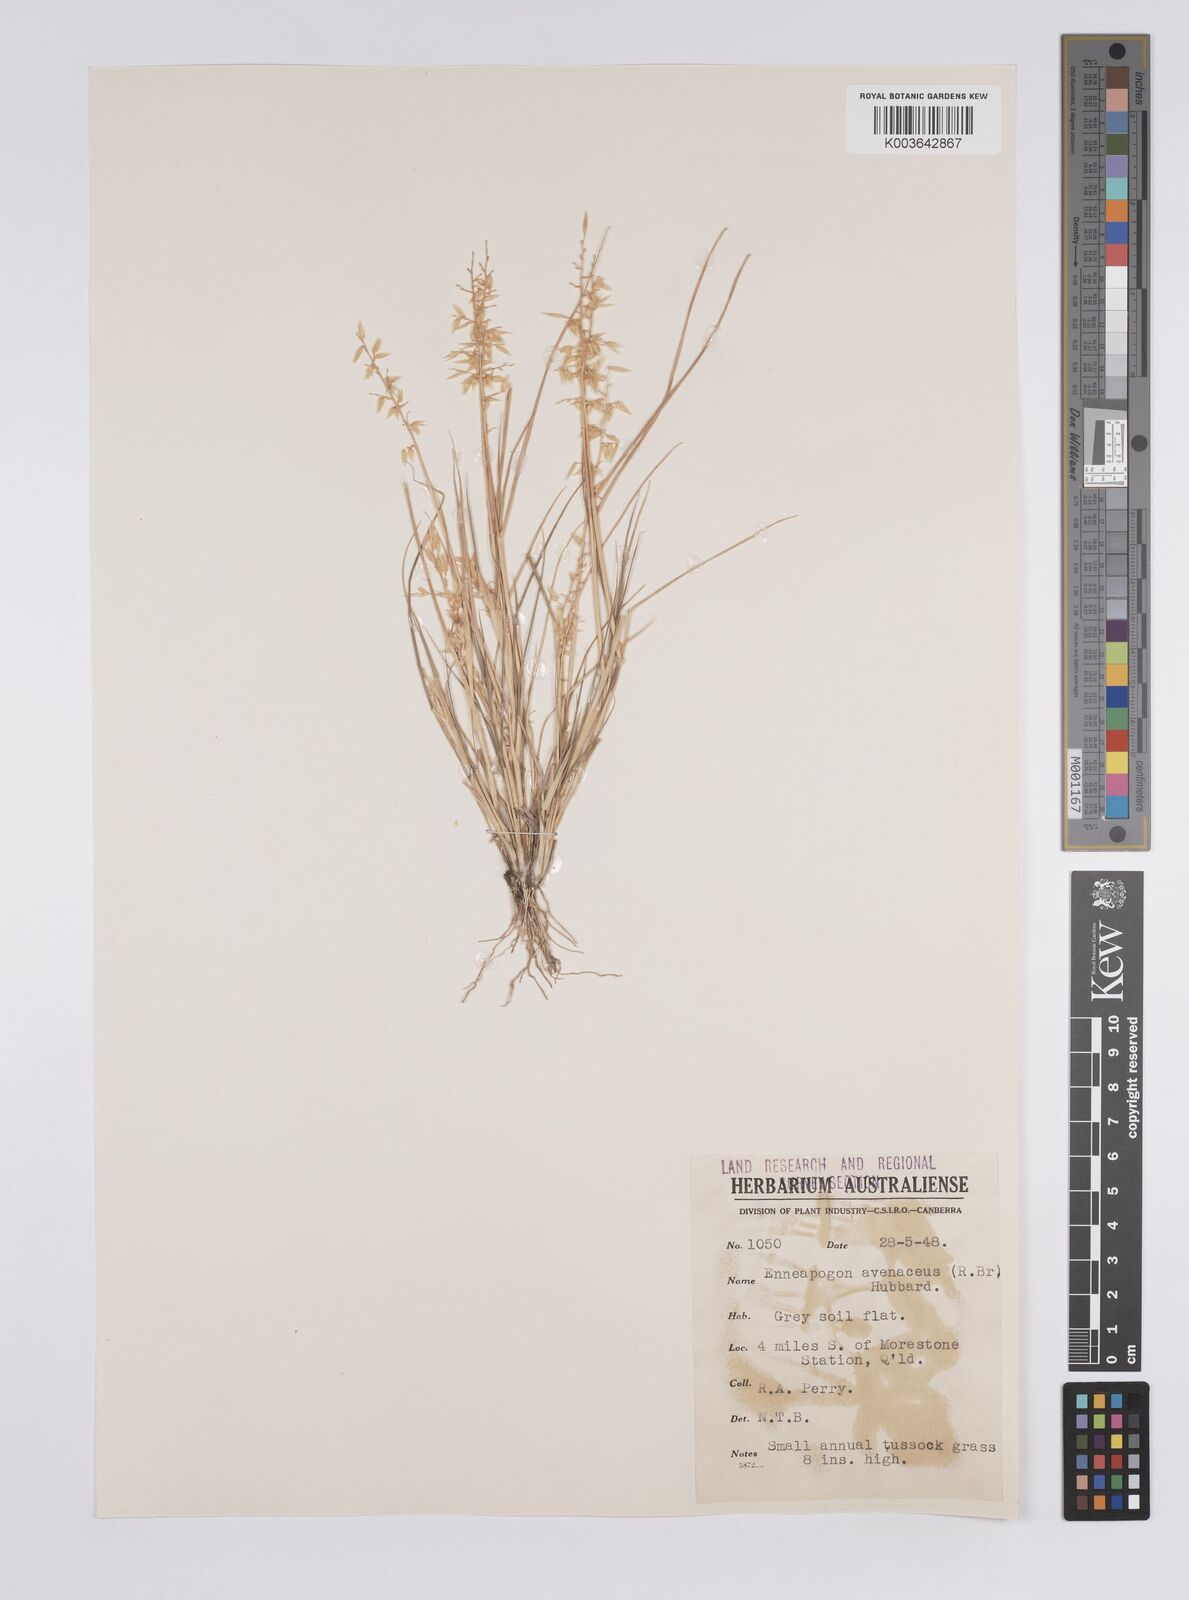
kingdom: Plantae
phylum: Tracheophyta
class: Liliopsida
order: Poales
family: Poaceae
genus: Enneapogon
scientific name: Enneapogon avenaceus
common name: Hairy oat grass
